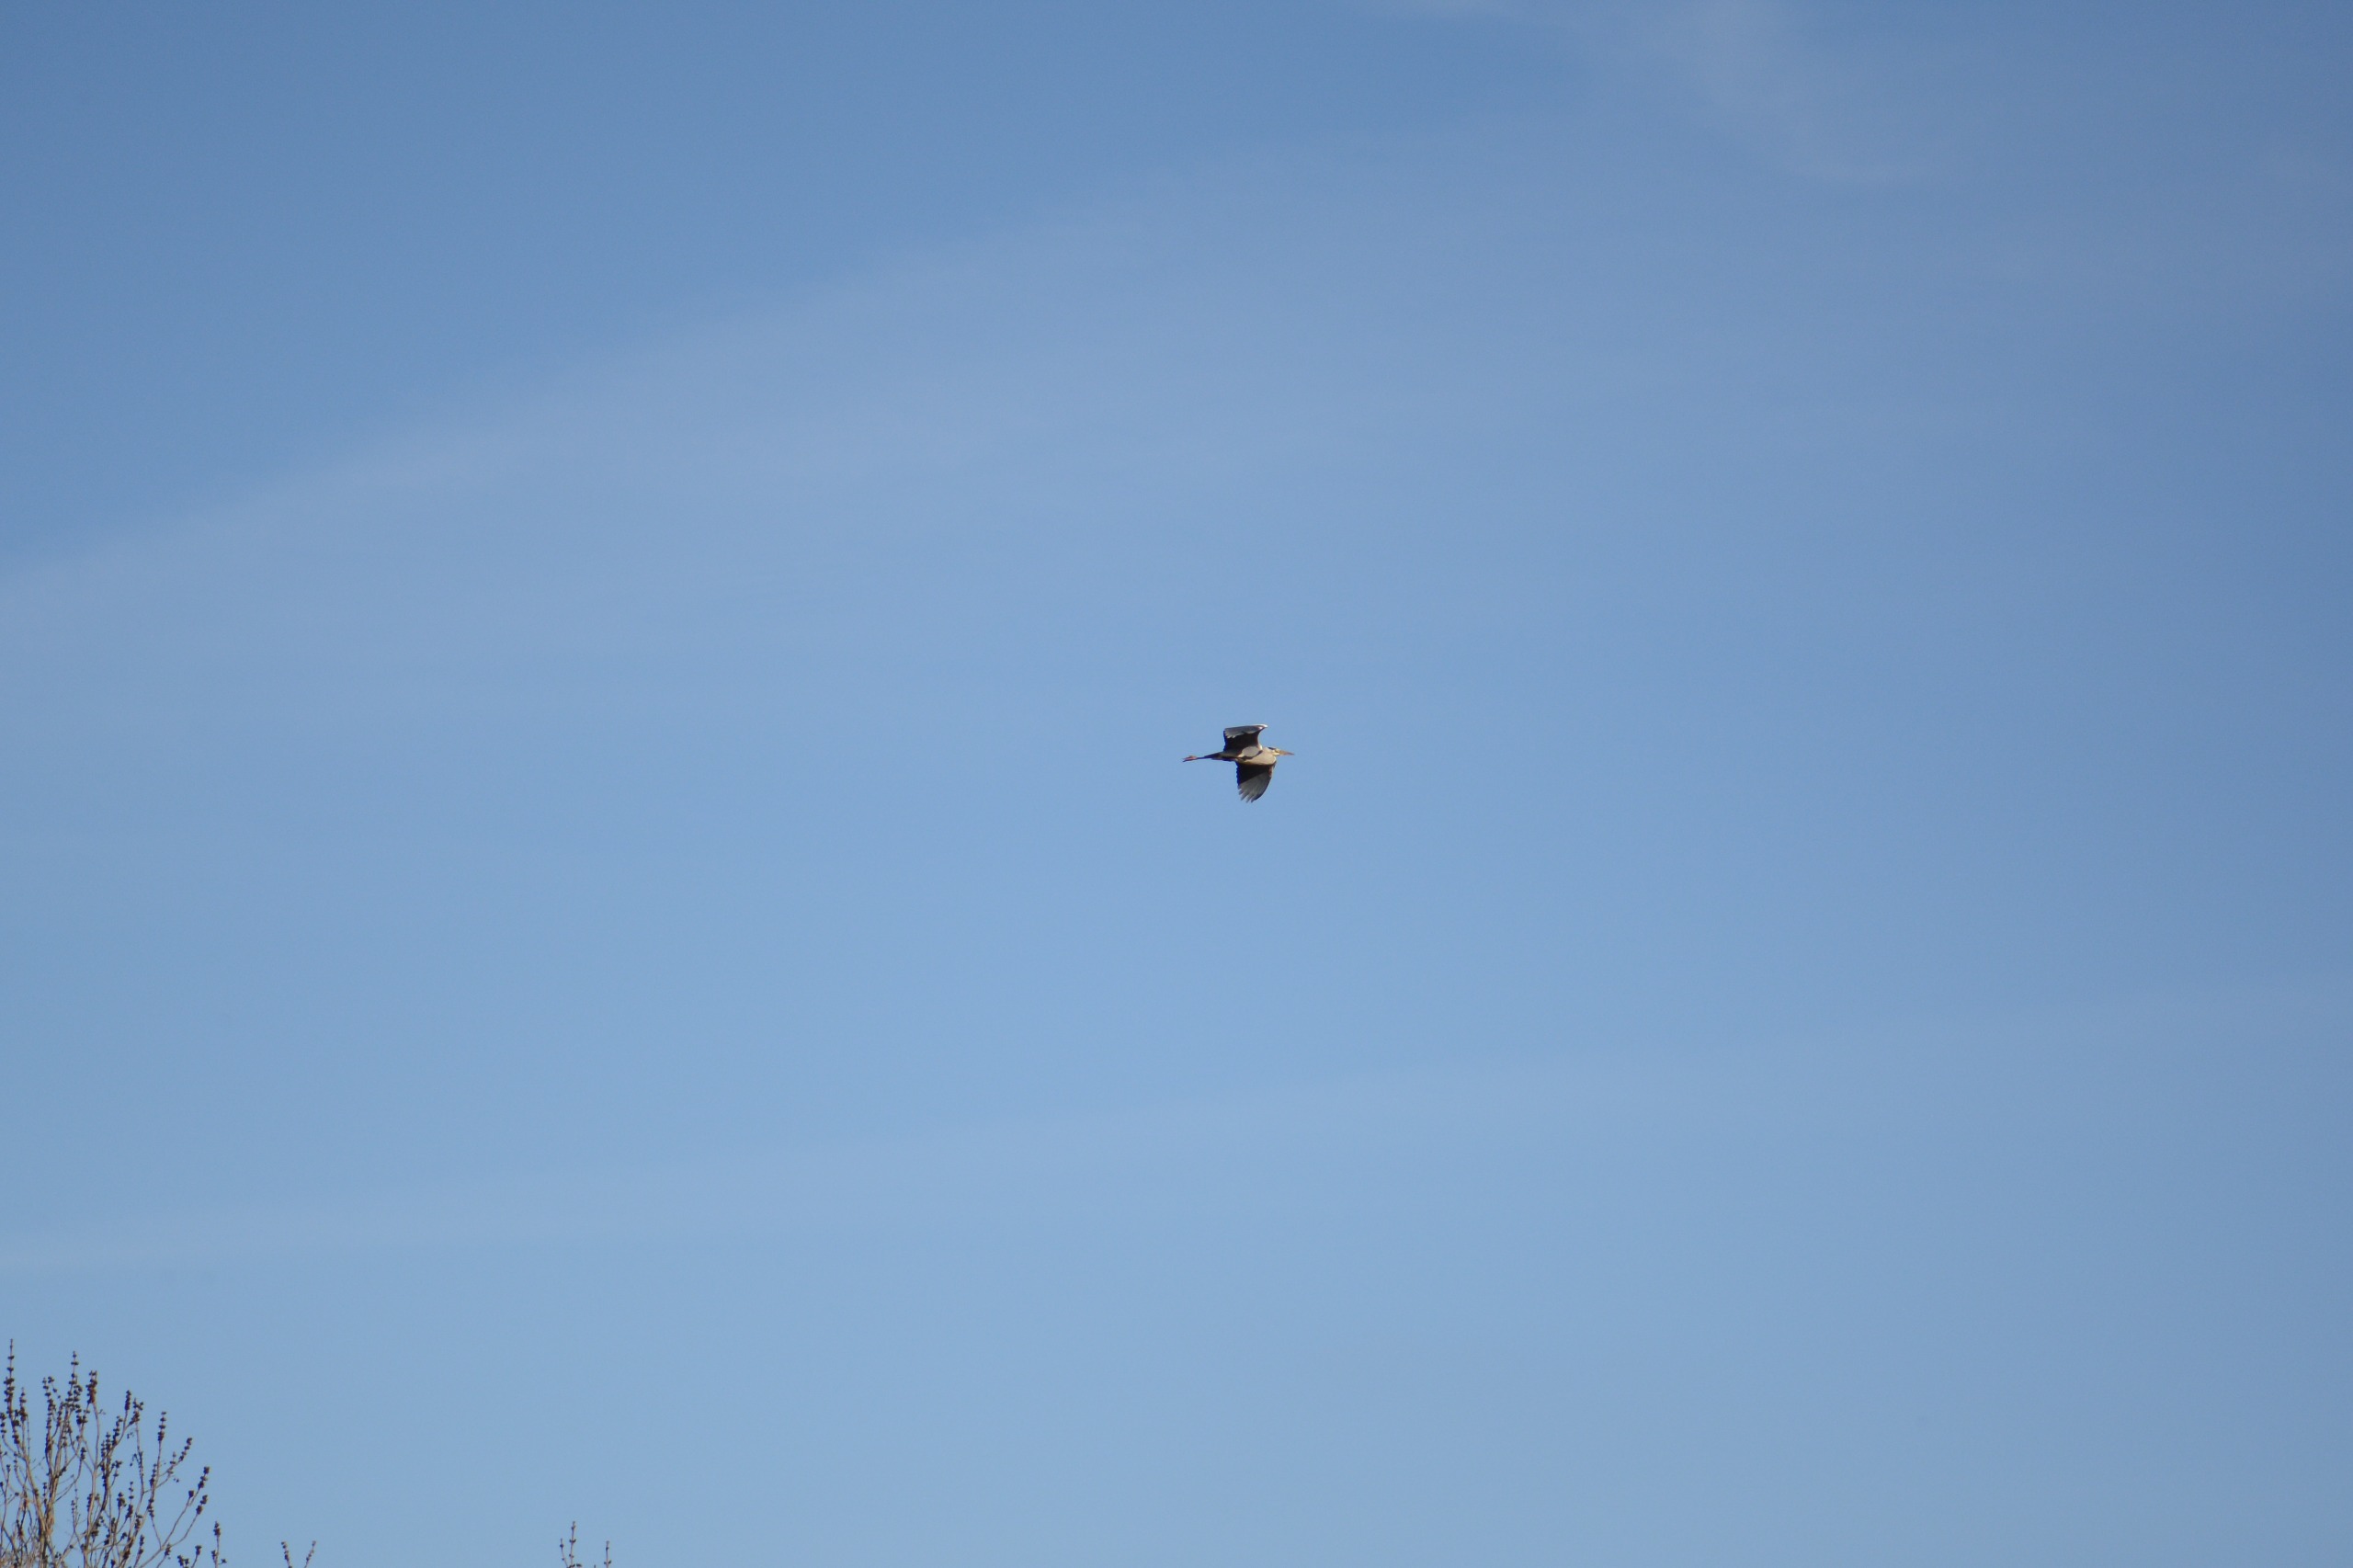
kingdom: Animalia
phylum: Chordata
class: Aves
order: Pelecaniformes
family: Ardeidae
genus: Ardea
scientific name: Ardea cinerea
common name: Fiskehejre
